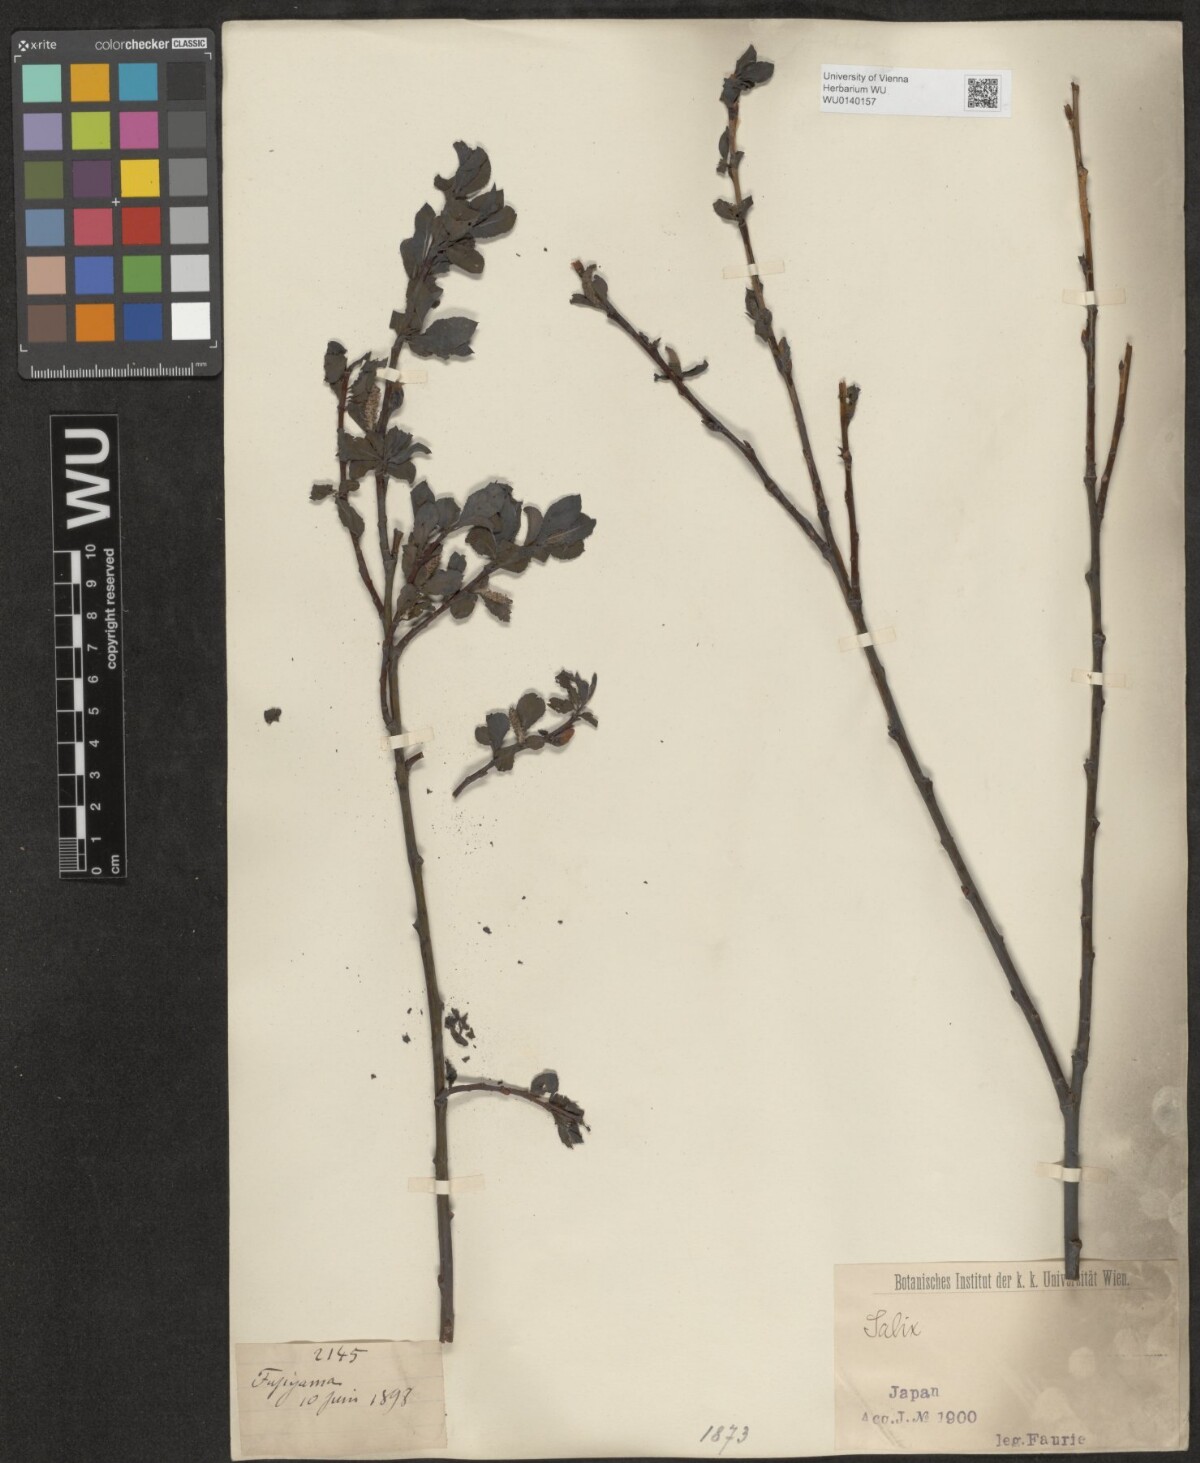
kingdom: Plantae
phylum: Tracheophyta
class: Magnoliopsida
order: Malpighiales
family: Salicaceae
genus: Salix
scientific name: Salix
